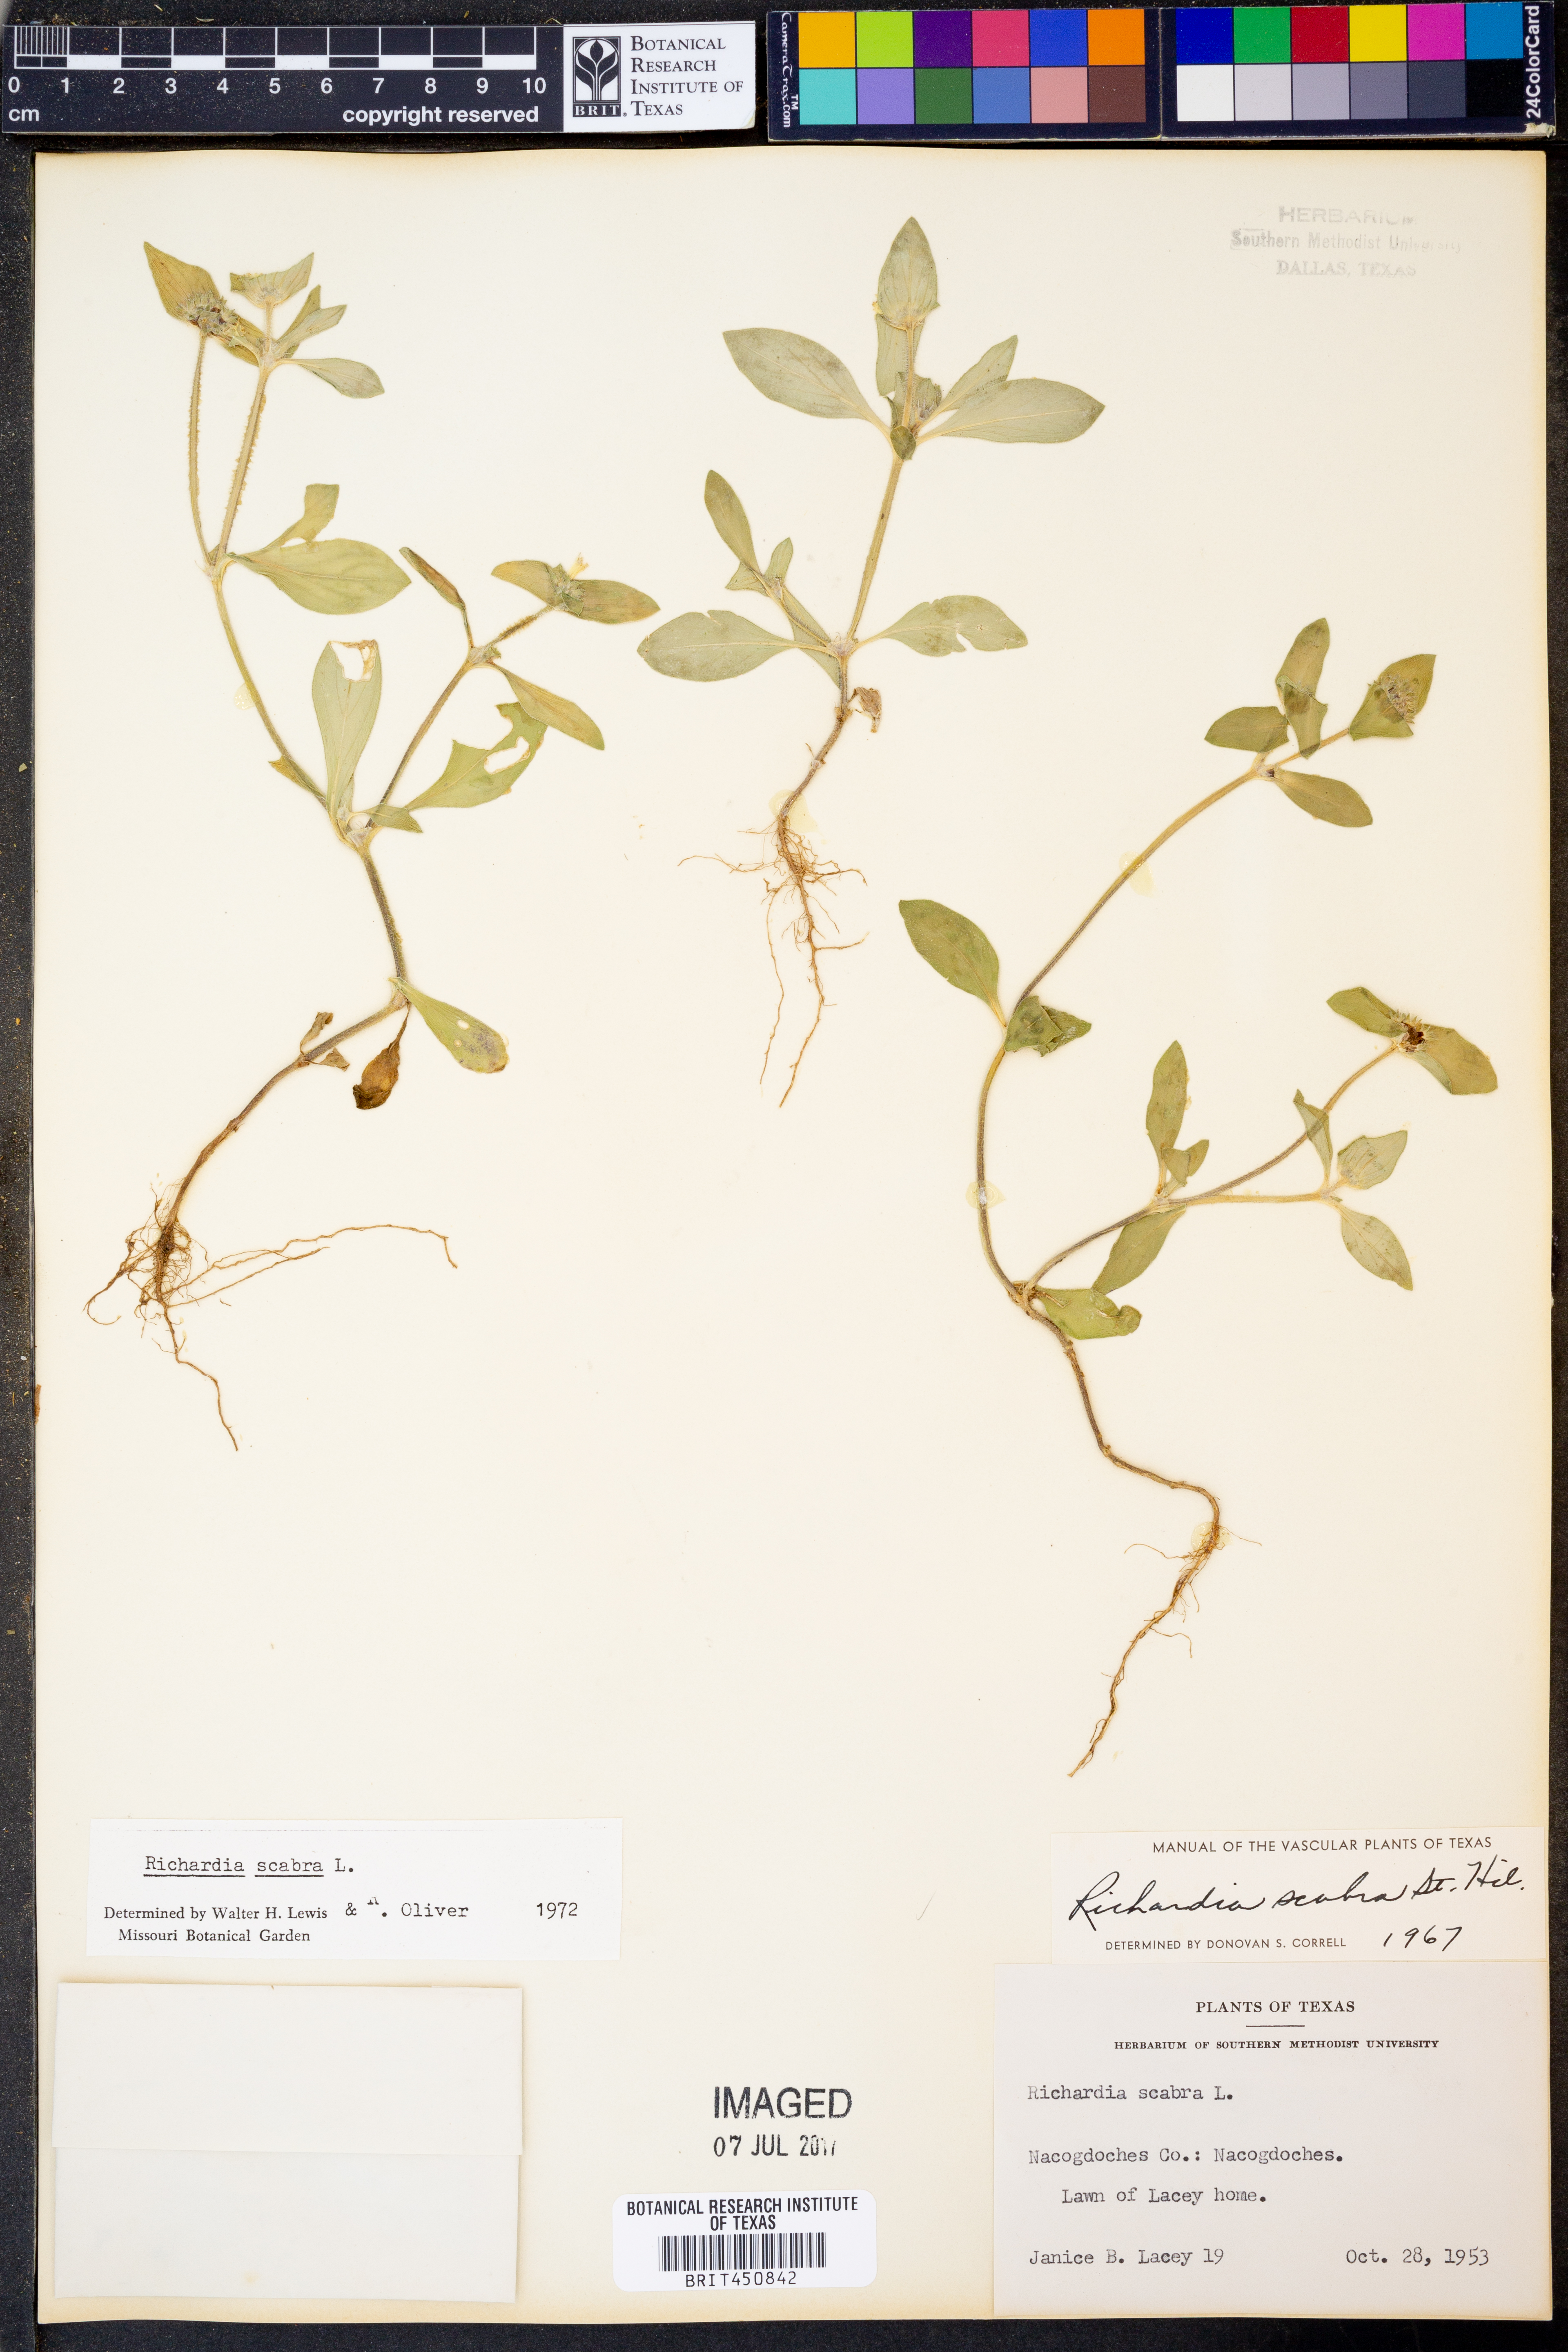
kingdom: Plantae
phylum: Tracheophyta
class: Magnoliopsida
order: Gentianales
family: Rubiaceae
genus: Richardia
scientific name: Richardia scabra
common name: Rough mexican clover
